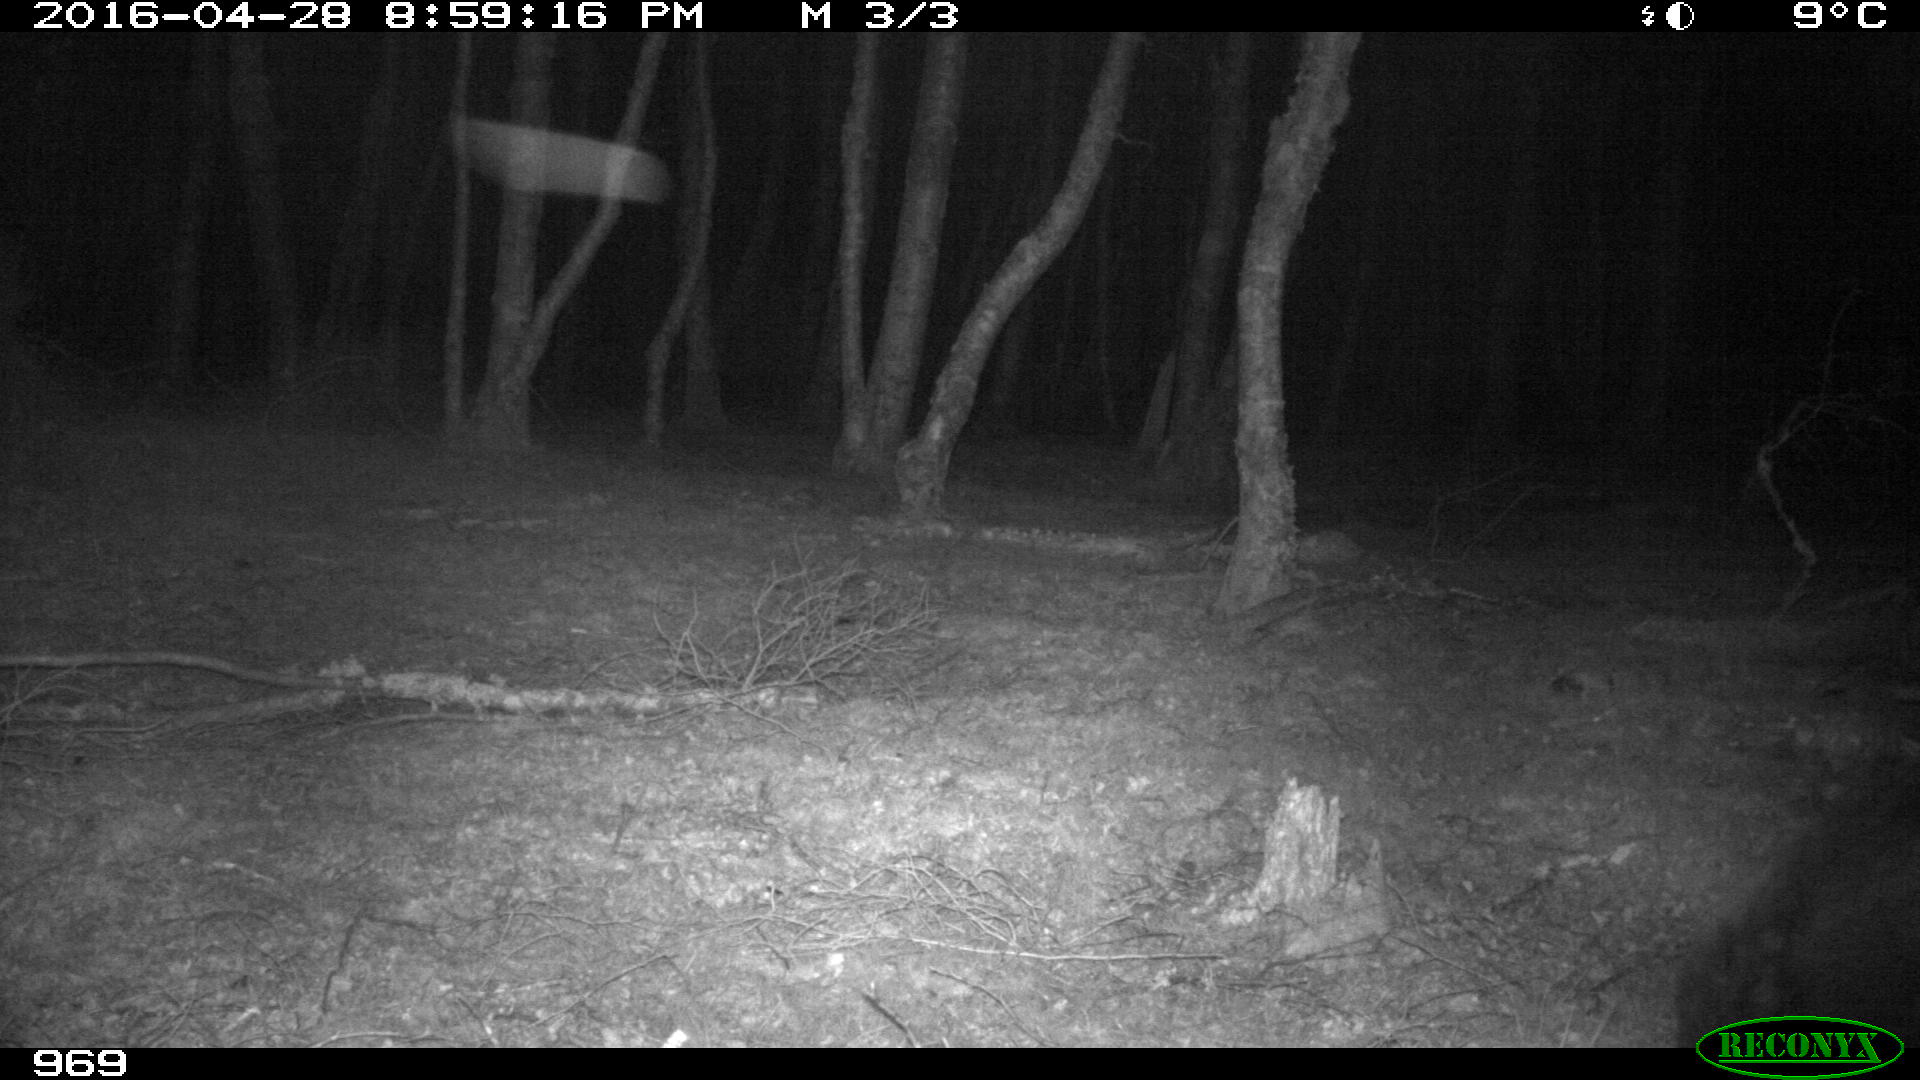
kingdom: Animalia
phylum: Chordata
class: Mammalia
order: Artiodactyla
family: Suidae
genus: Sus
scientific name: Sus scrofa
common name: Wild boar
